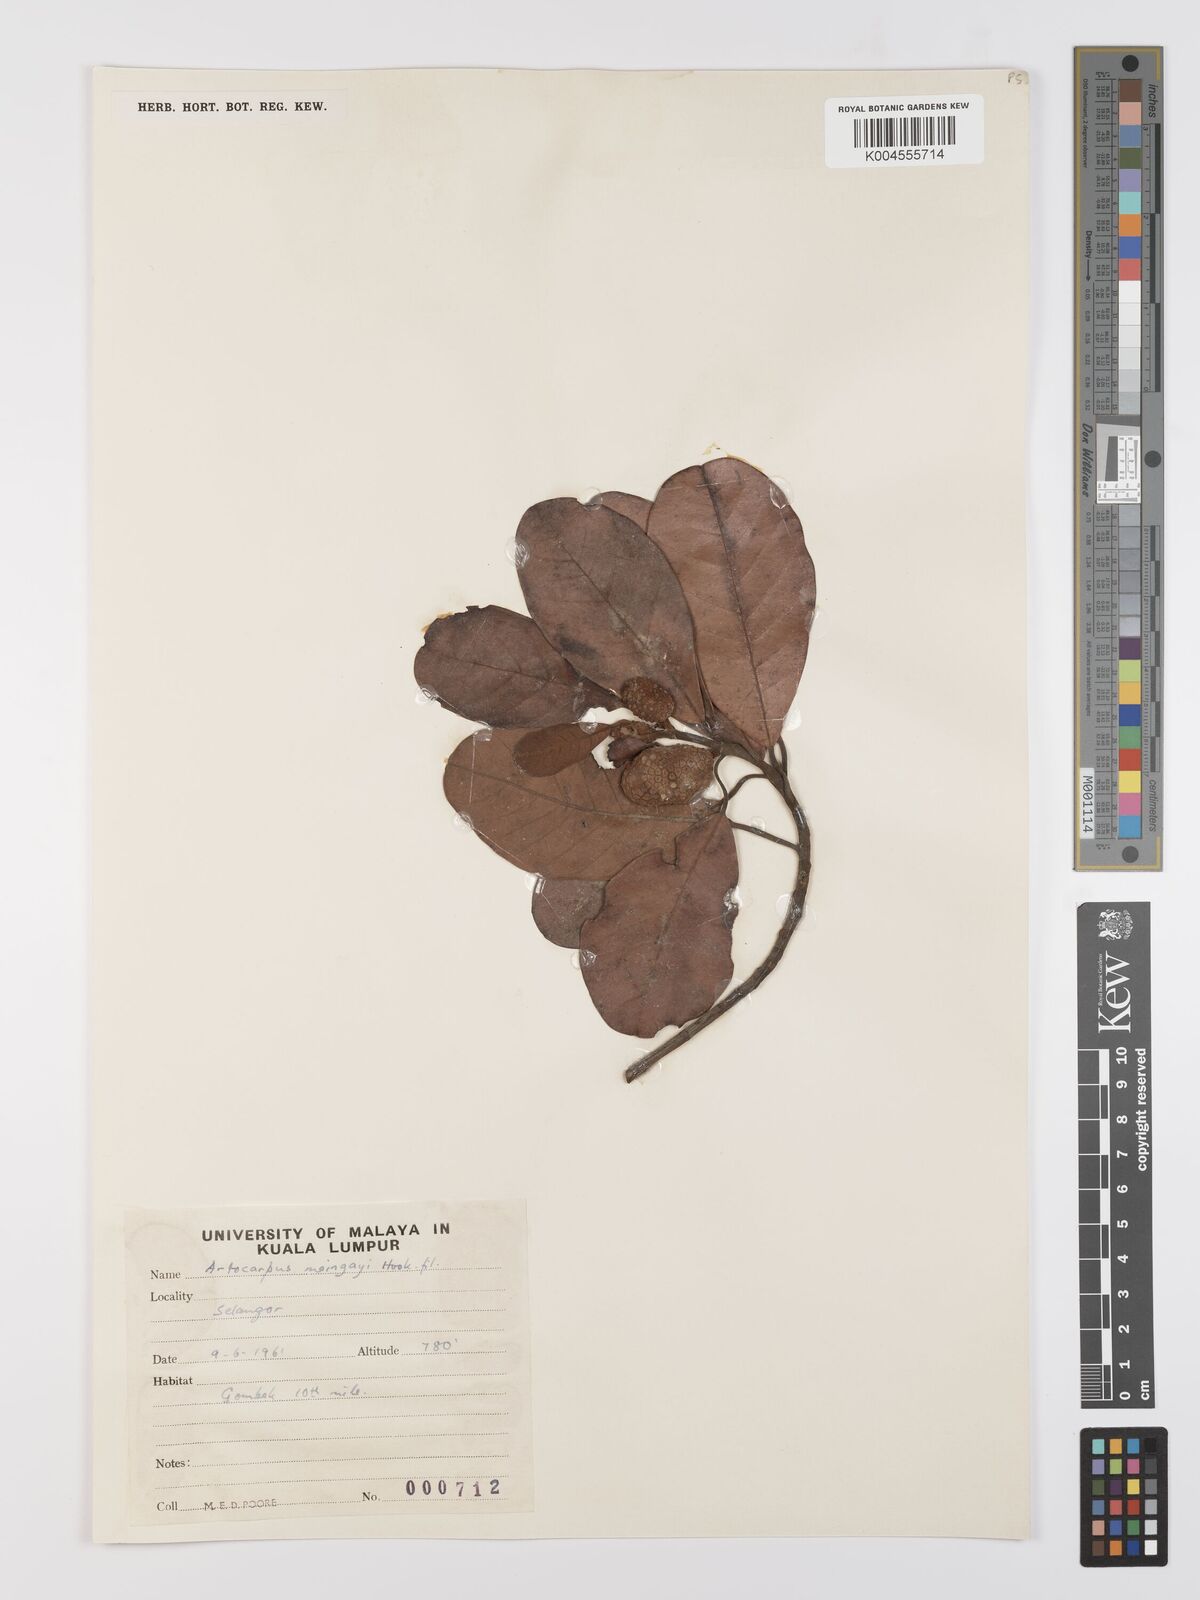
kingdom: Plantae
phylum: Tracheophyta
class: Magnoliopsida
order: Rosales
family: Moraceae
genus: Artocarpus
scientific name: Artocarpus kemando
